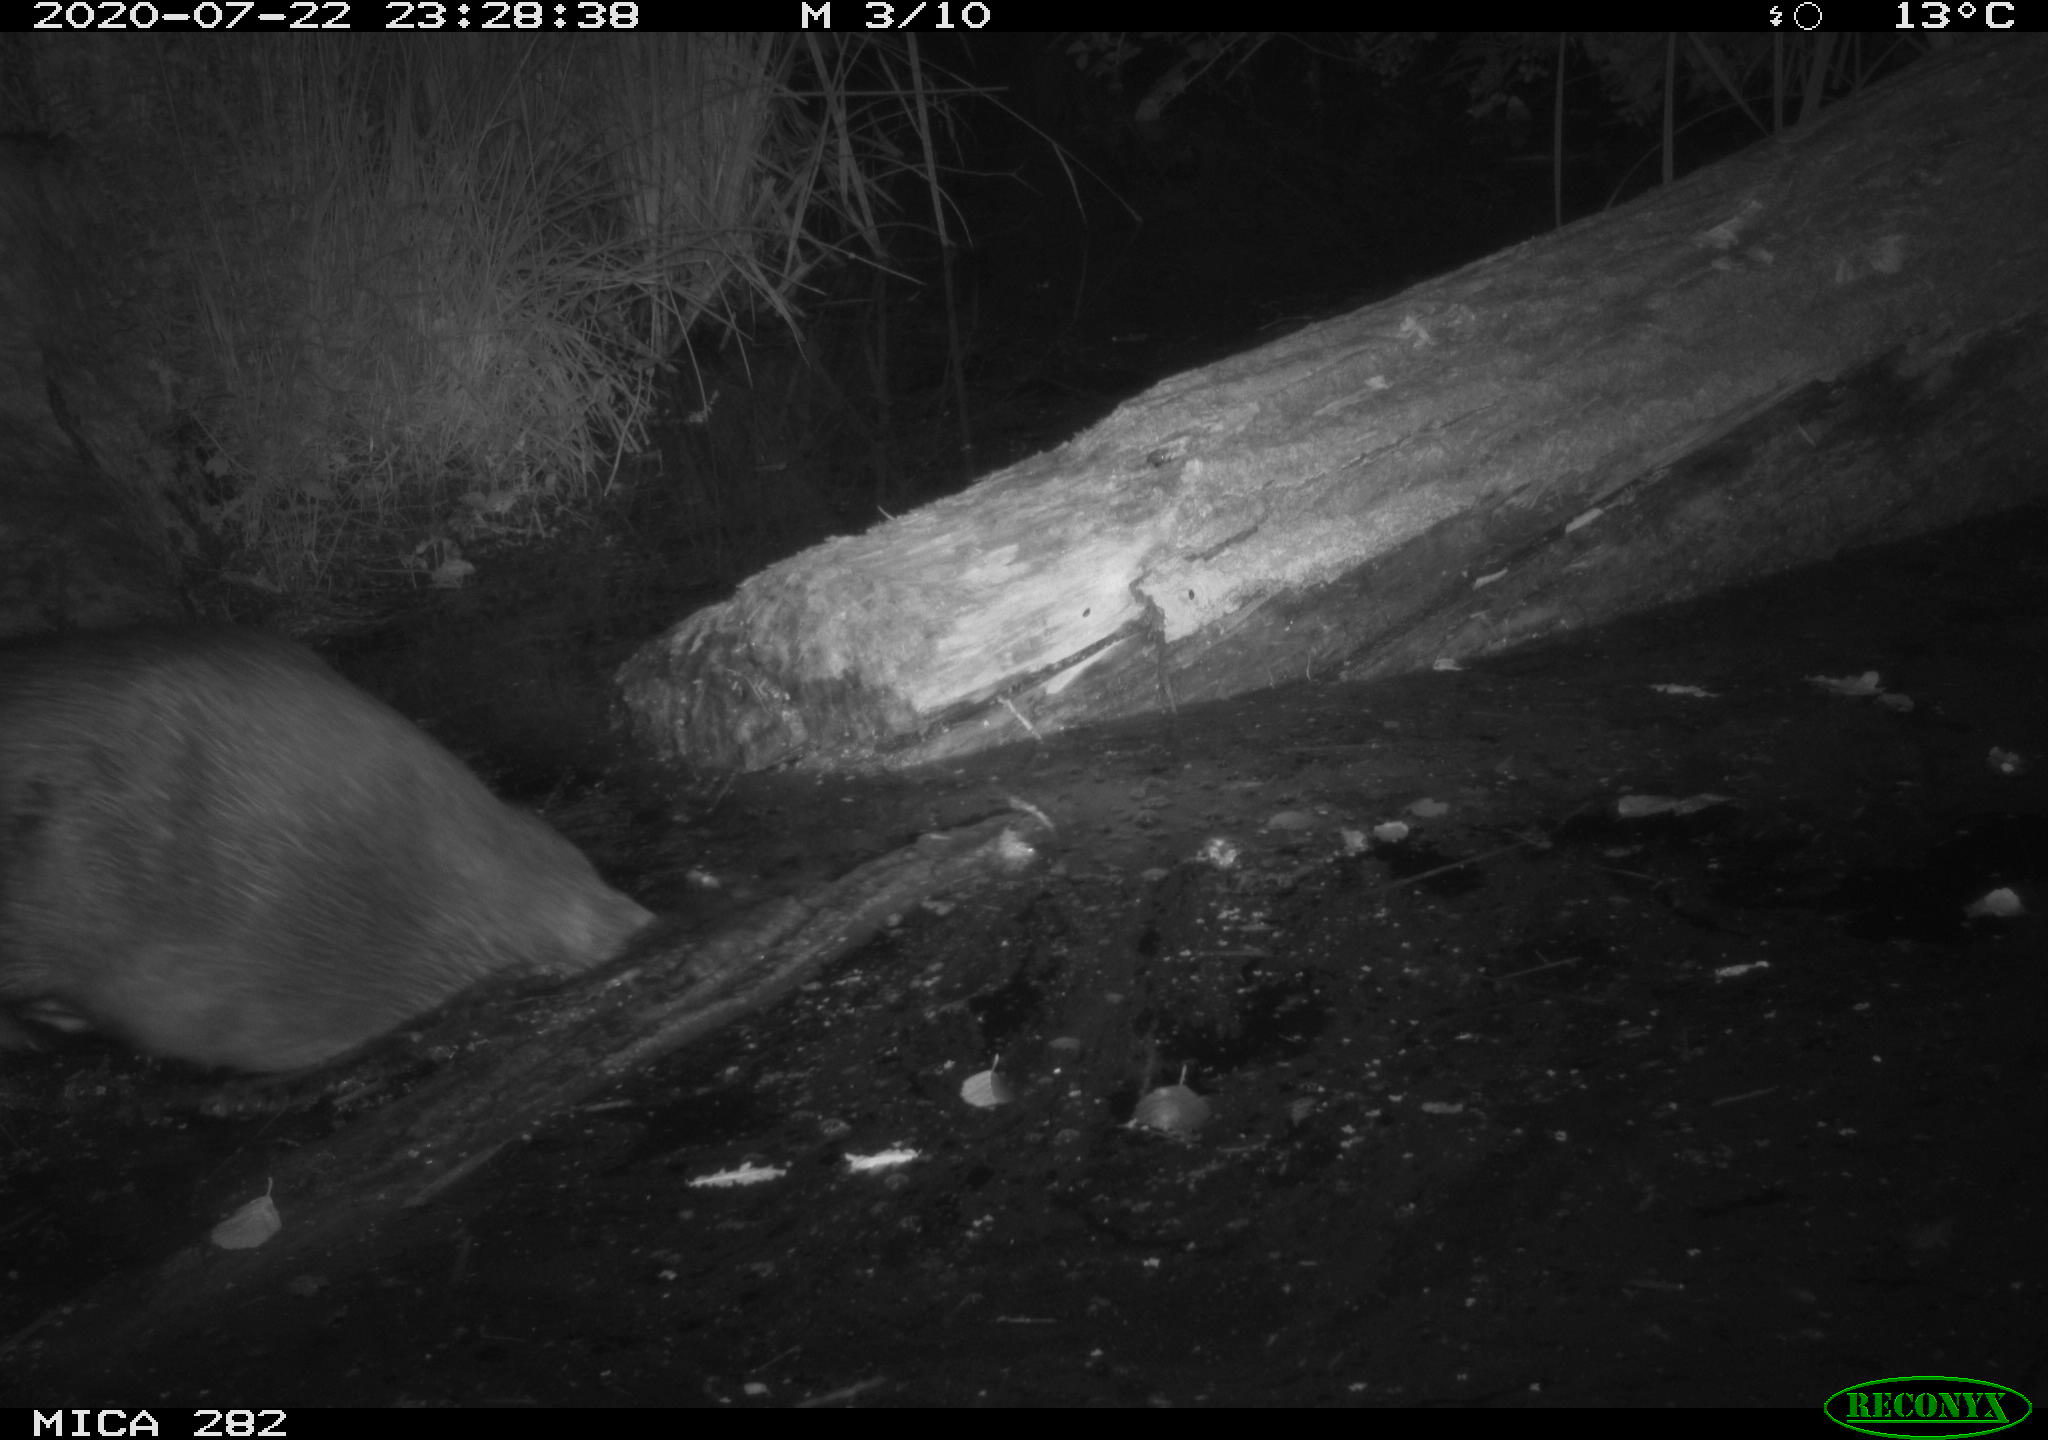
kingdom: Animalia
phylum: Chordata
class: Mammalia
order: Rodentia
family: Castoridae
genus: Castor
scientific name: Castor fiber
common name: Eurasian beaver
